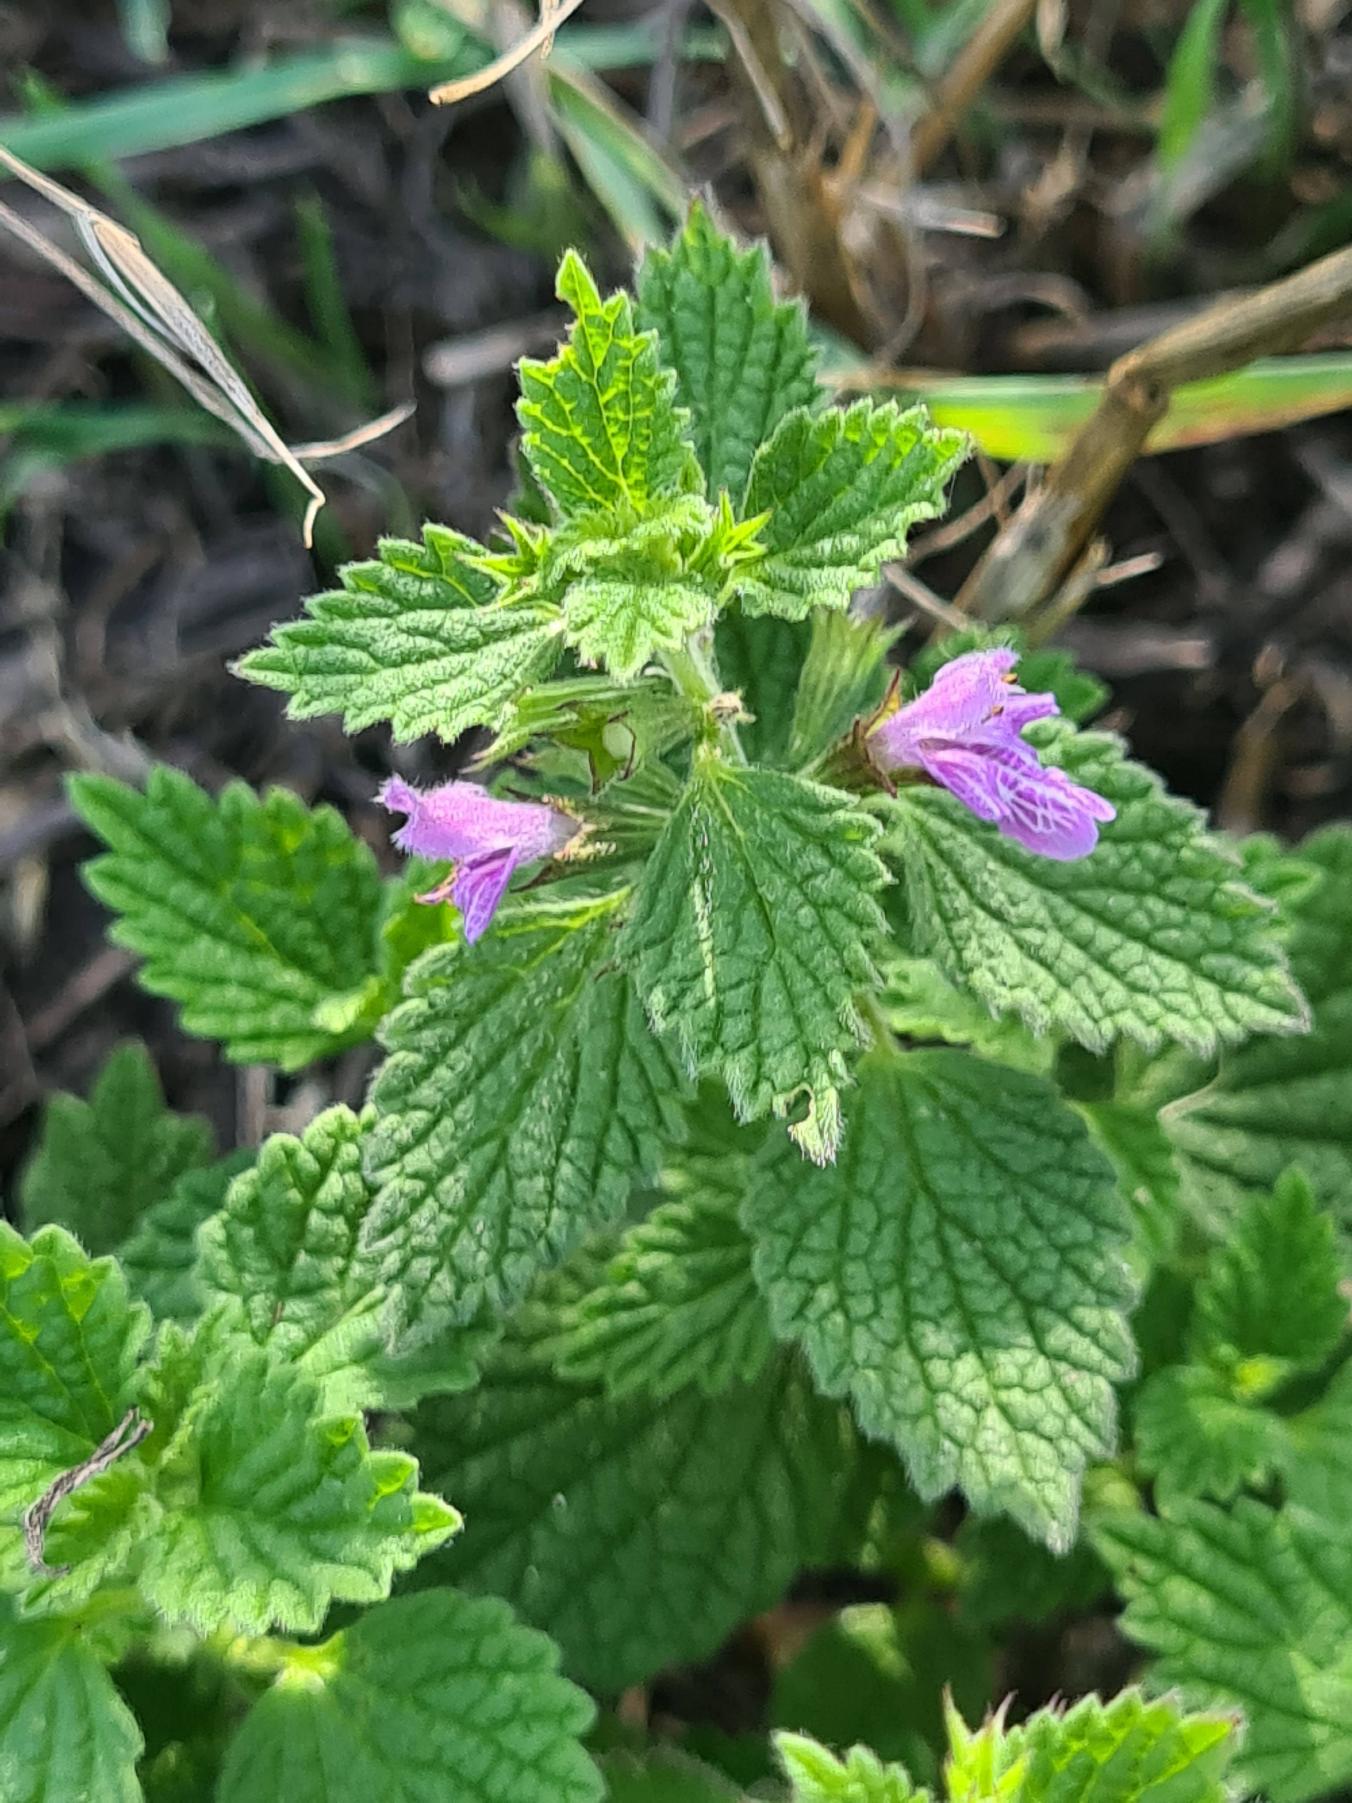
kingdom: Plantae
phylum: Tracheophyta
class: Magnoliopsida
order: Lamiales
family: Lamiaceae
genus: Ballota
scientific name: Ballota nigra
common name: Tandbæger
